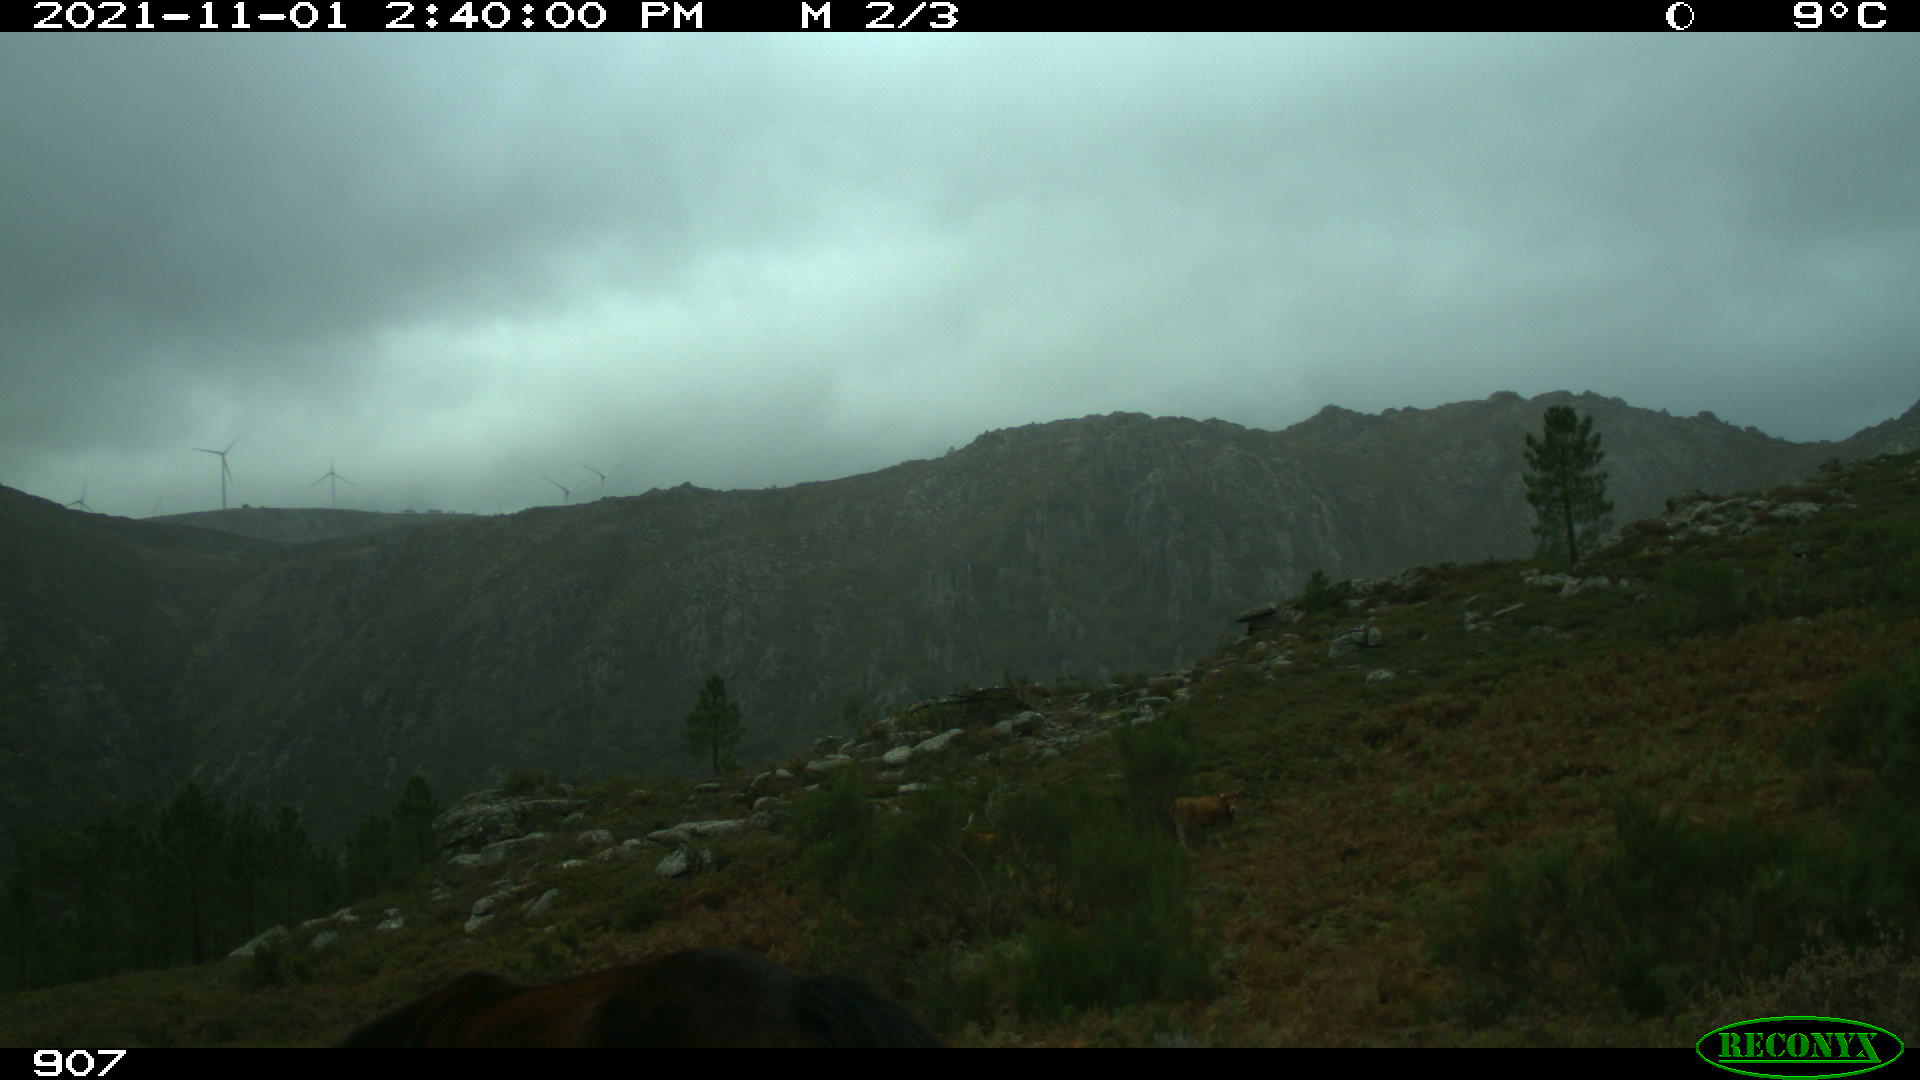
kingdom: Animalia
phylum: Chordata
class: Mammalia
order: Perissodactyla
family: Equidae
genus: Equus
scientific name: Equus caballus
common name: Horse
